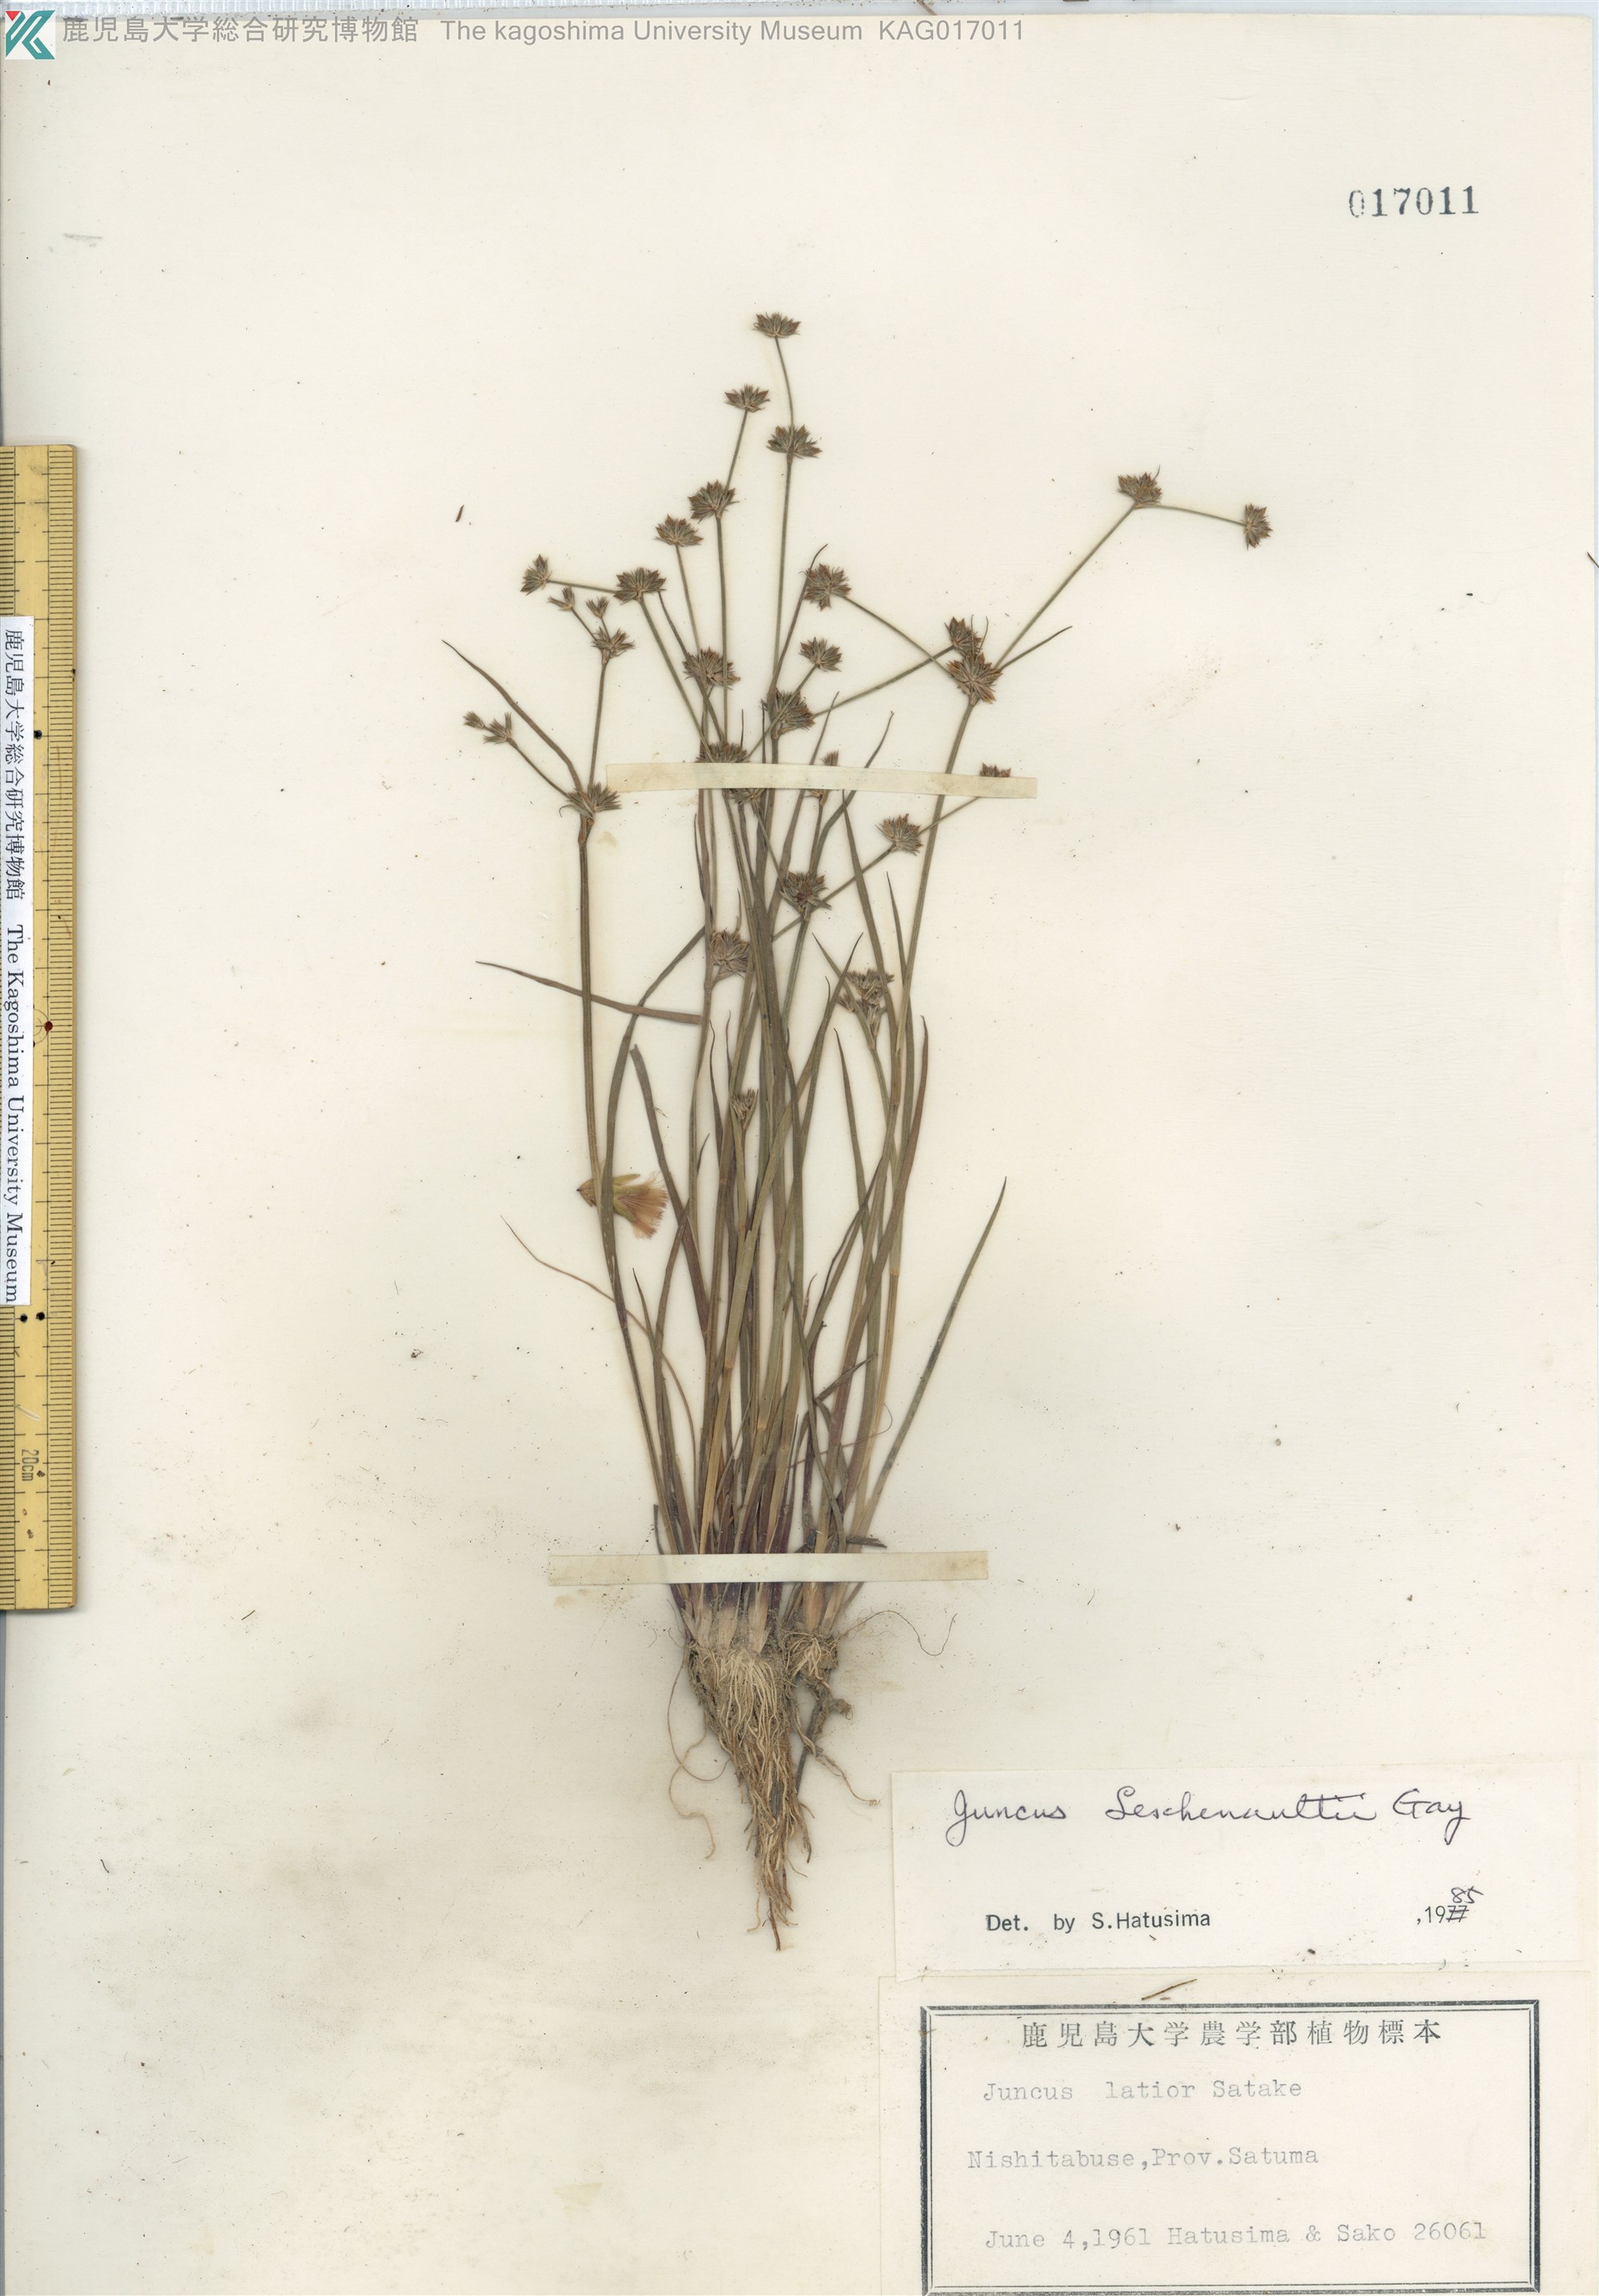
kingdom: Plantae
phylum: Tracheophyta
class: Liliopsida
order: Poales
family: Juncaceae
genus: Juncus
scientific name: Juncus prismatocarpus
